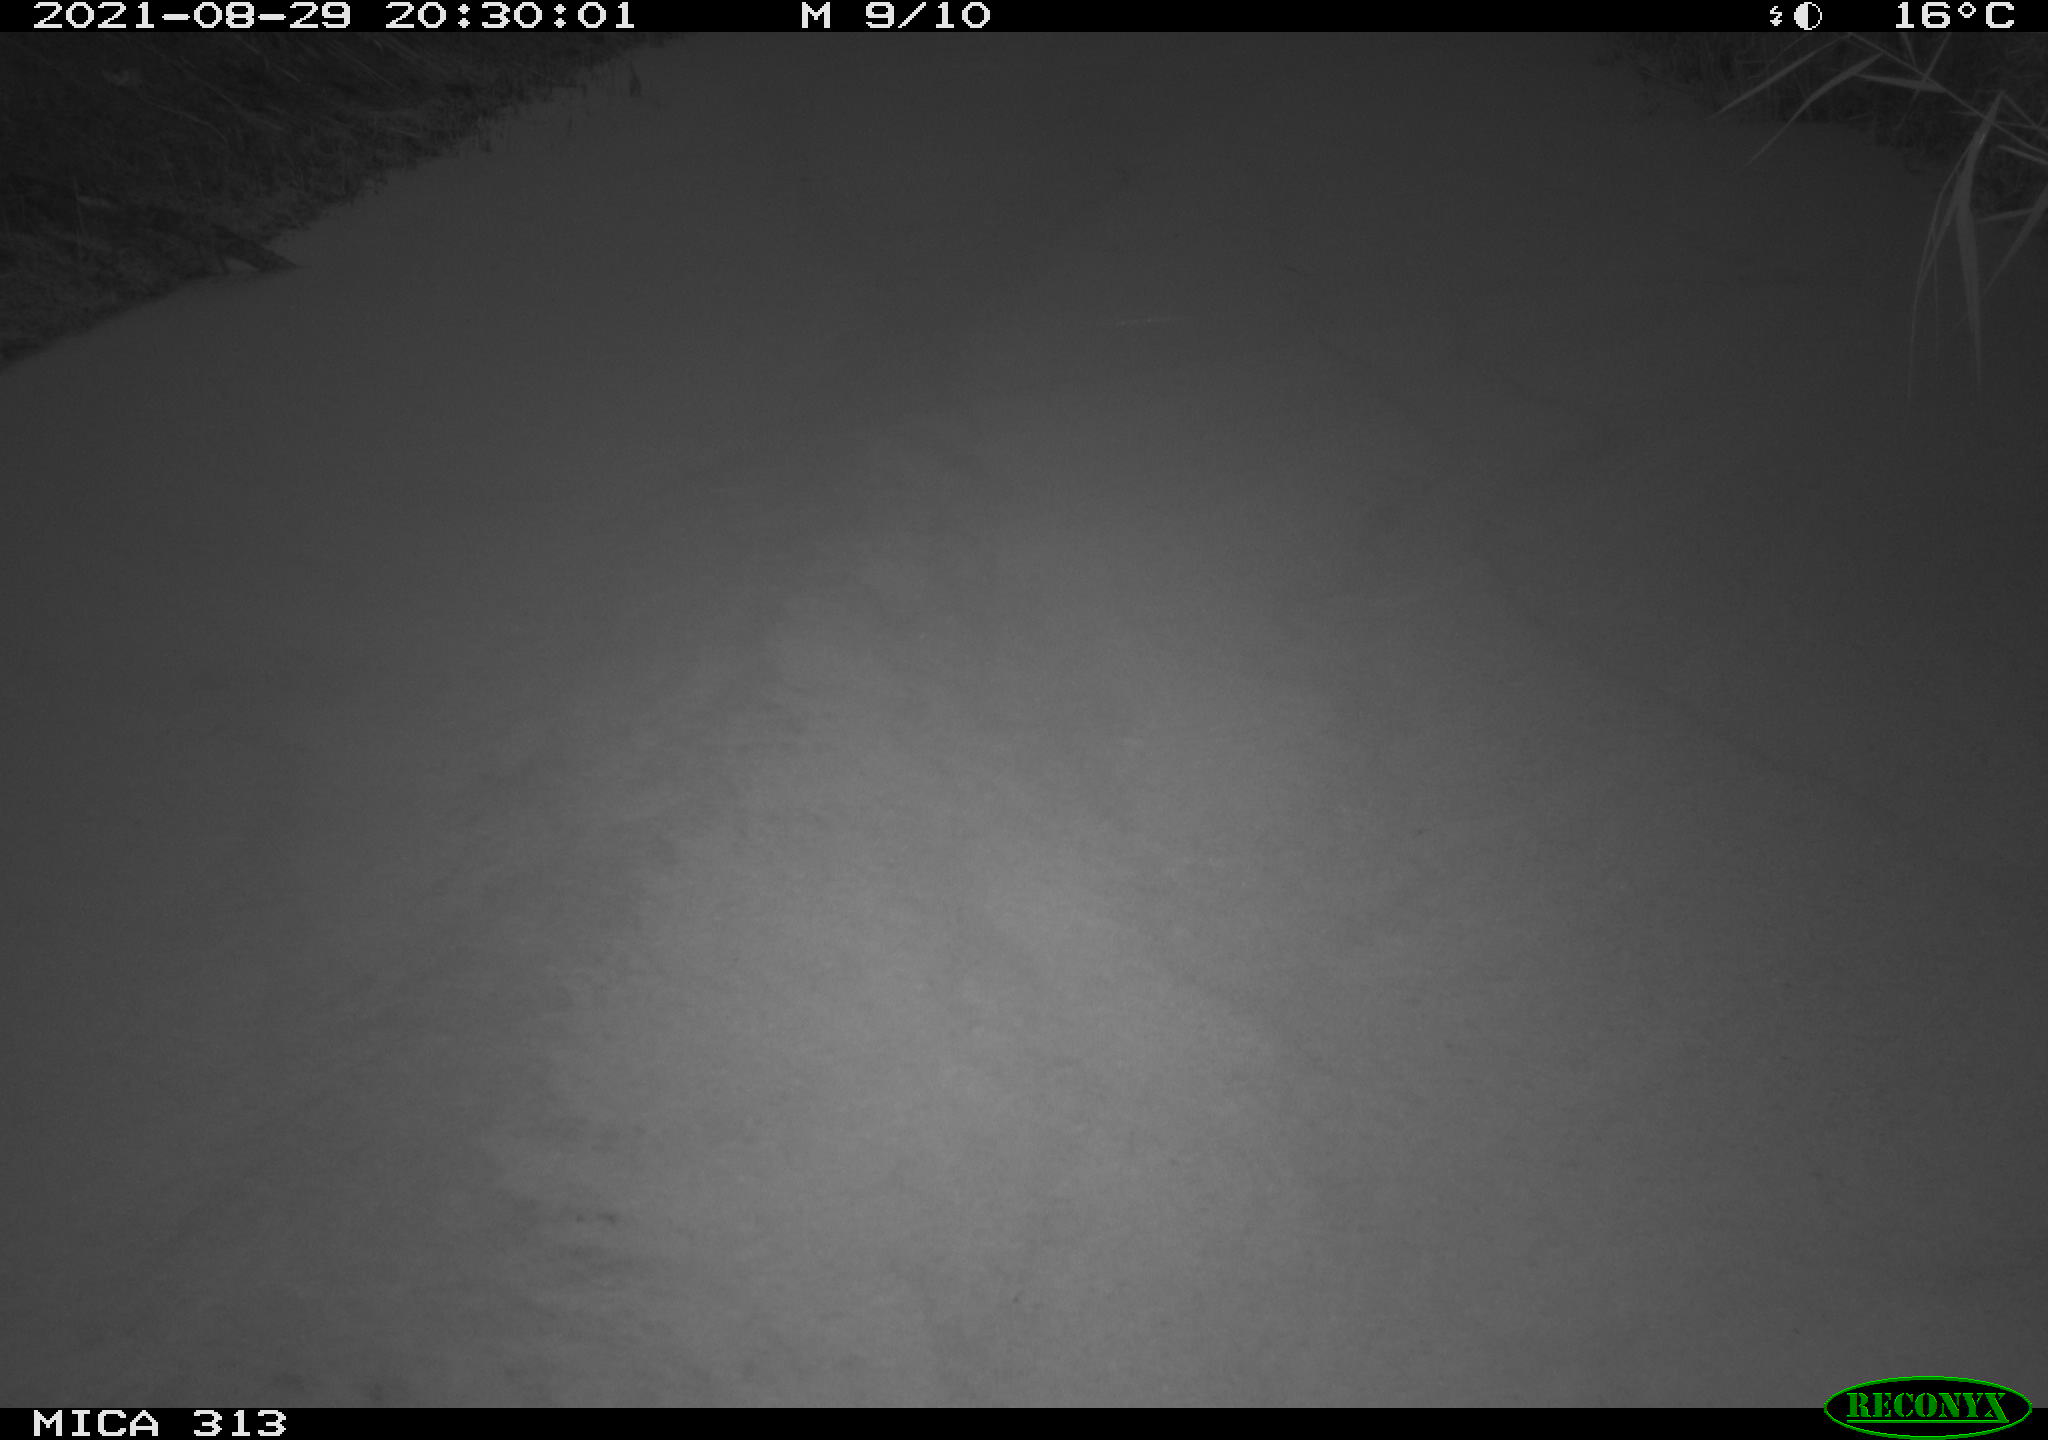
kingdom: Animalia
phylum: Chordata
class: Aves
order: Gruiformes
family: Rallidae
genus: Gallinula
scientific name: Gallinula chloropus
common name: Common moorhen
